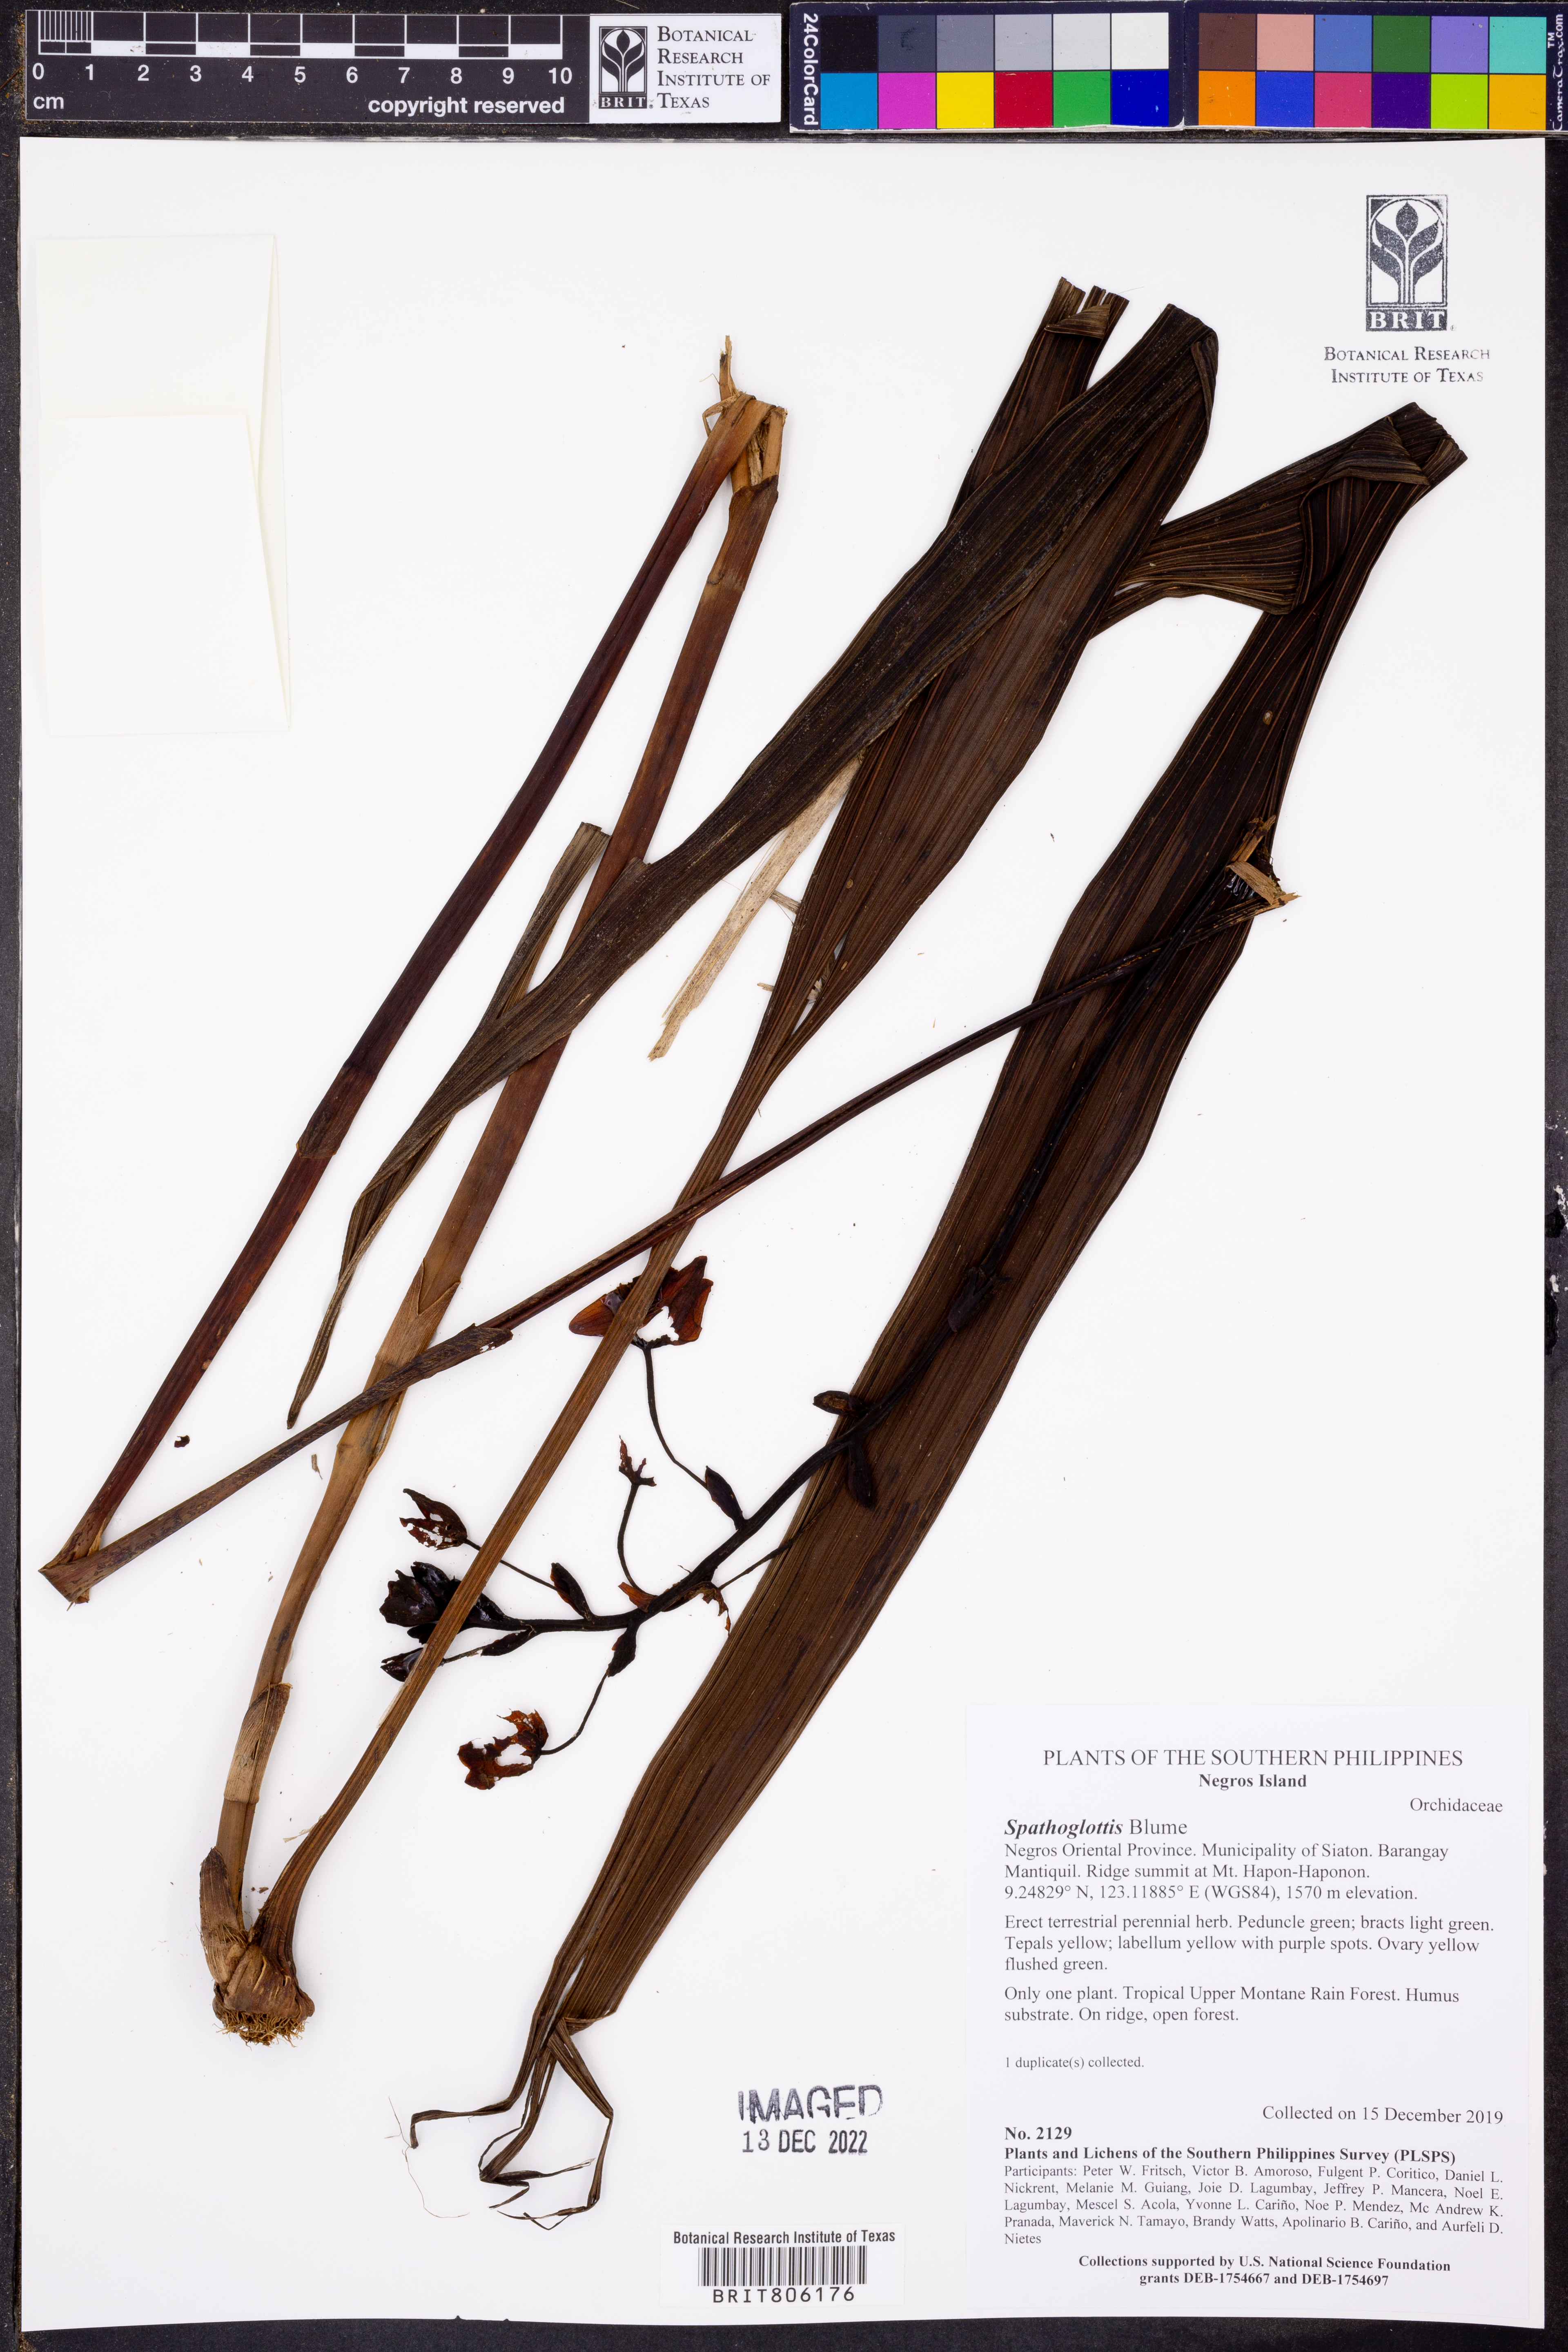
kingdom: Plantae
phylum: Tracheophyta
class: Liliopsida
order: Asparagales
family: Orchidaceae
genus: Spathoglottis
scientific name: Spathoglottis
